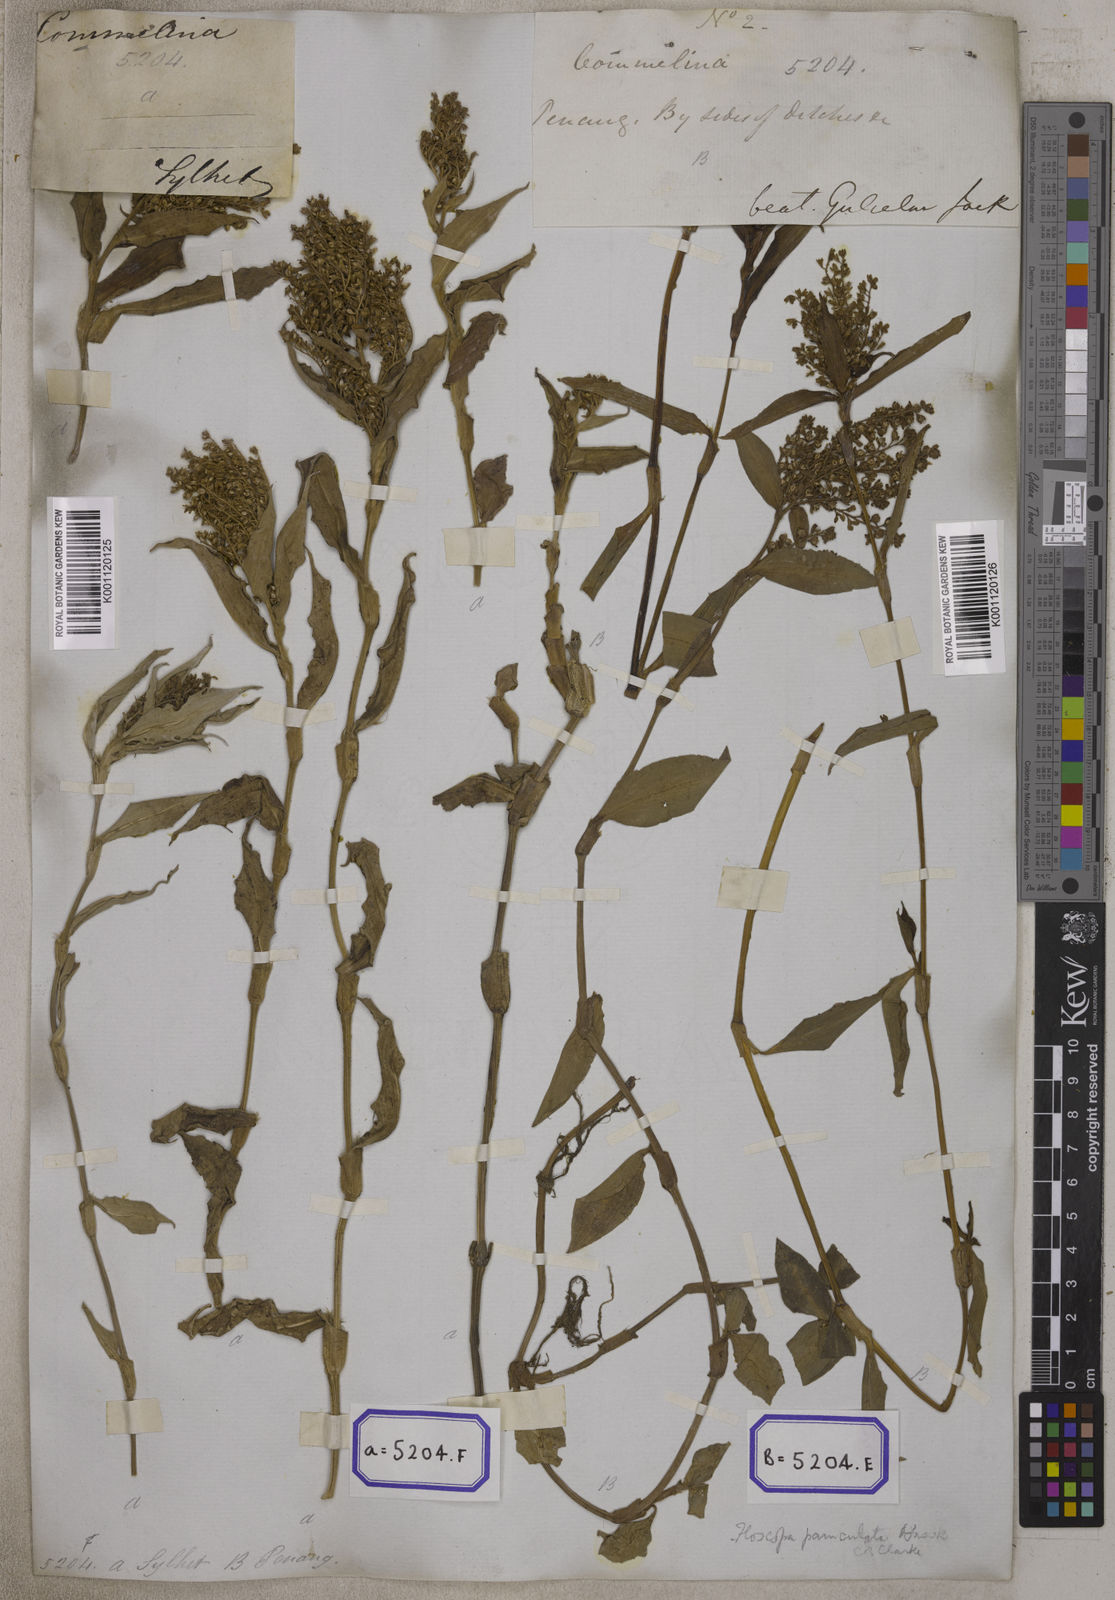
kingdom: Plantae
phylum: Tracheophyta
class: Liliopsida
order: Commelinales
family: Commelinaceae
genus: Floscopa
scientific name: Floscopa scandens
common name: Climbing flower cup
